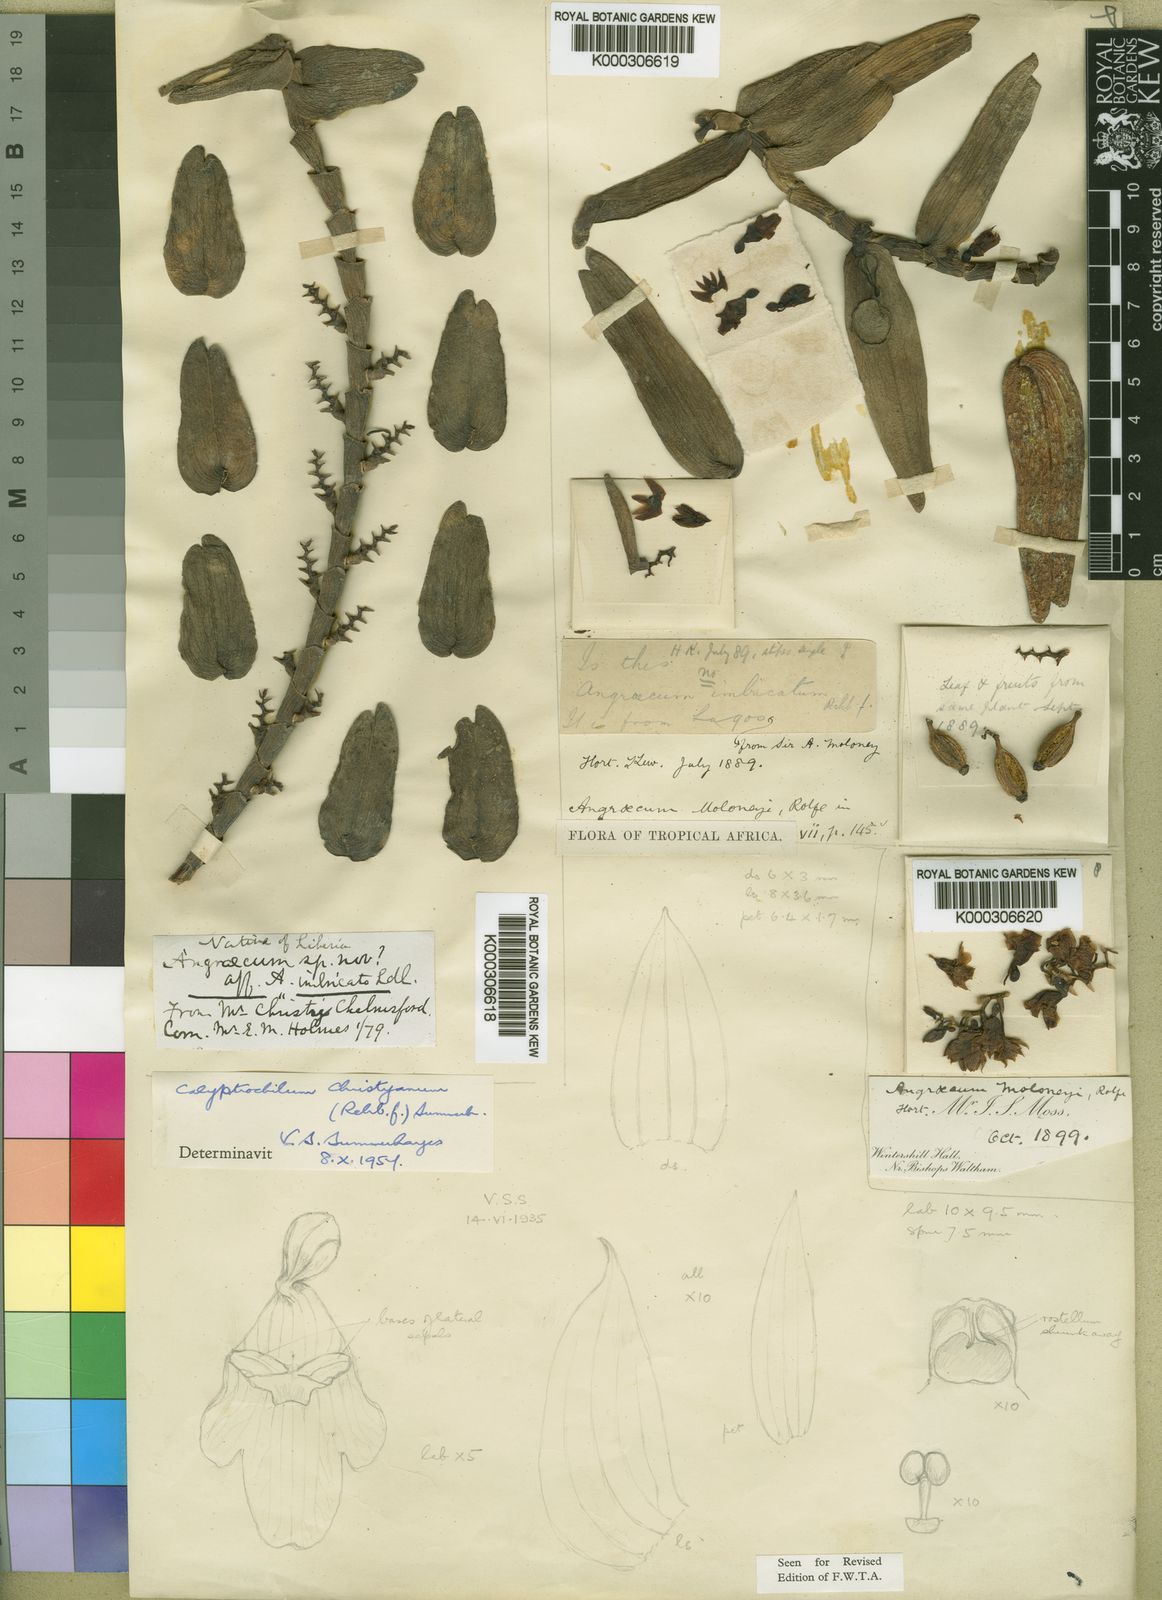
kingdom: Plantae
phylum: Tracheophyta
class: Liliopsida
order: Asparagales
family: Orchidaceae
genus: Calyptrochilum
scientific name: Calyptrochilum christyanum
